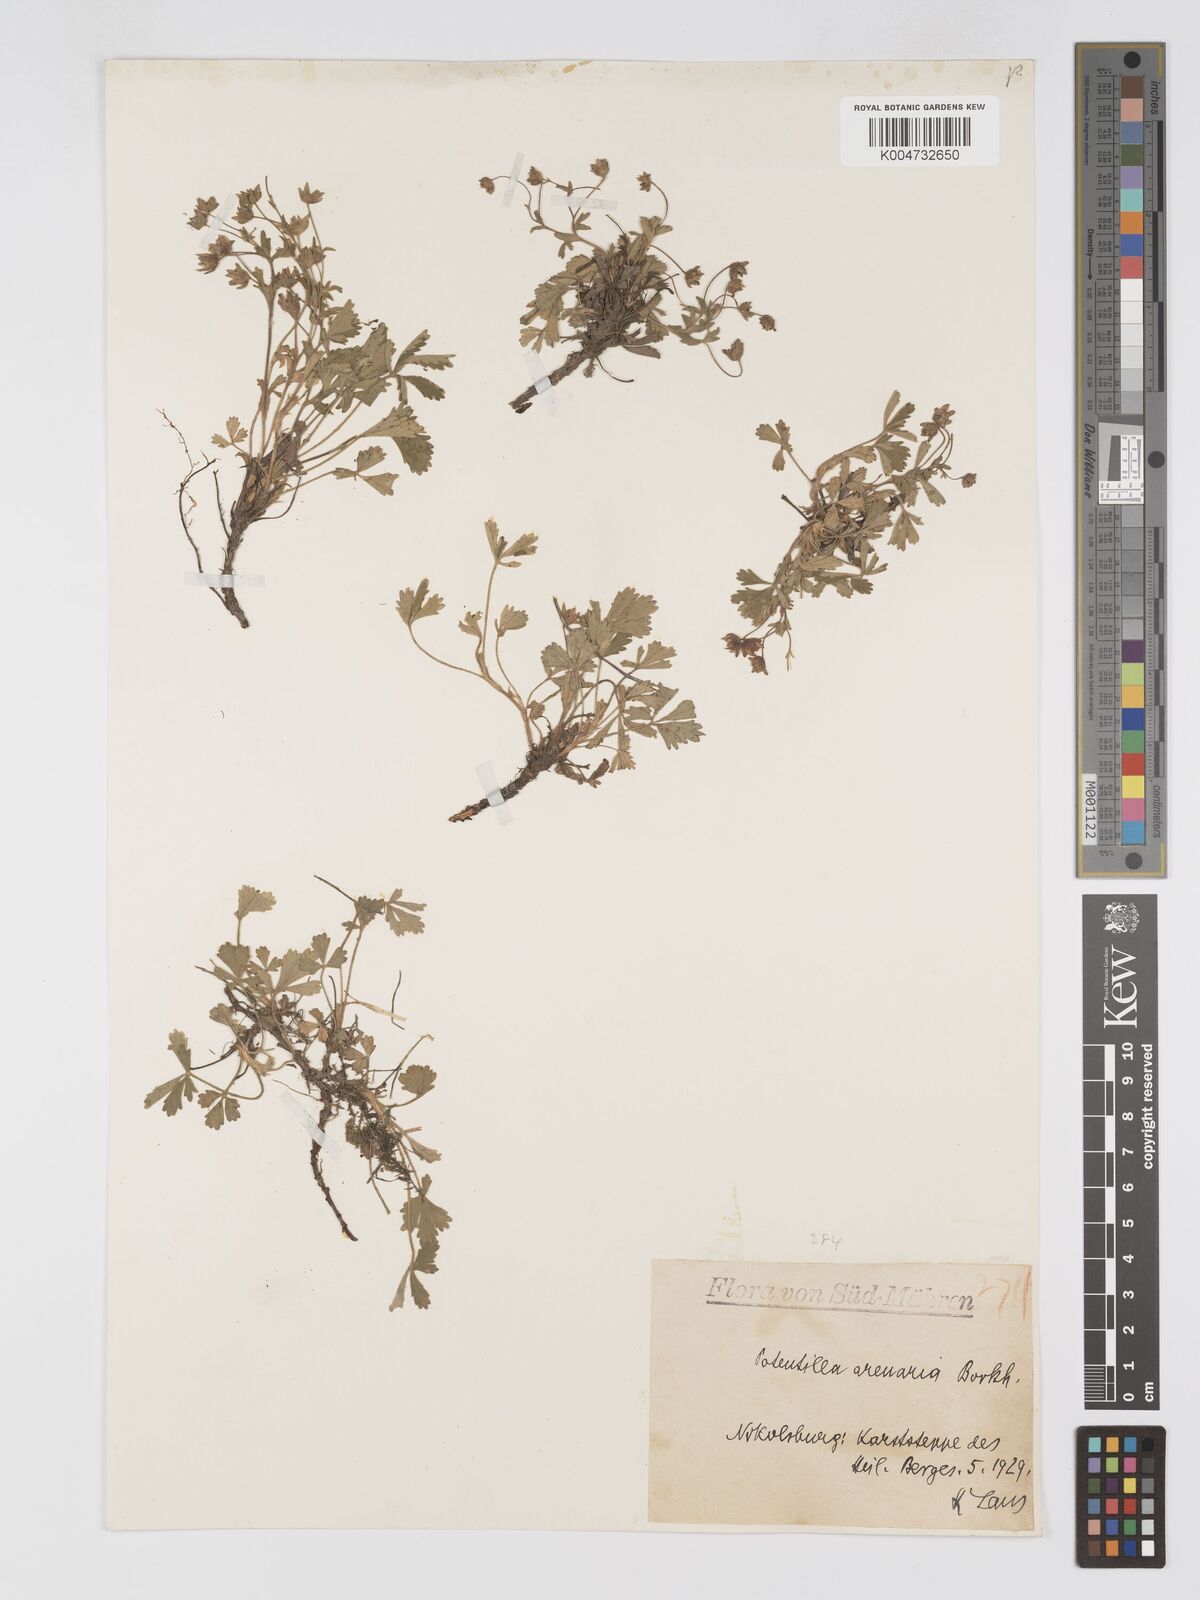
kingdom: Plantae
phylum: Tracheophyta
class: Magnoliopsida
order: Rosales
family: Rosaceae
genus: Potentilla
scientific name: Potentilla cinerea
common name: Ashy cinquefoil
